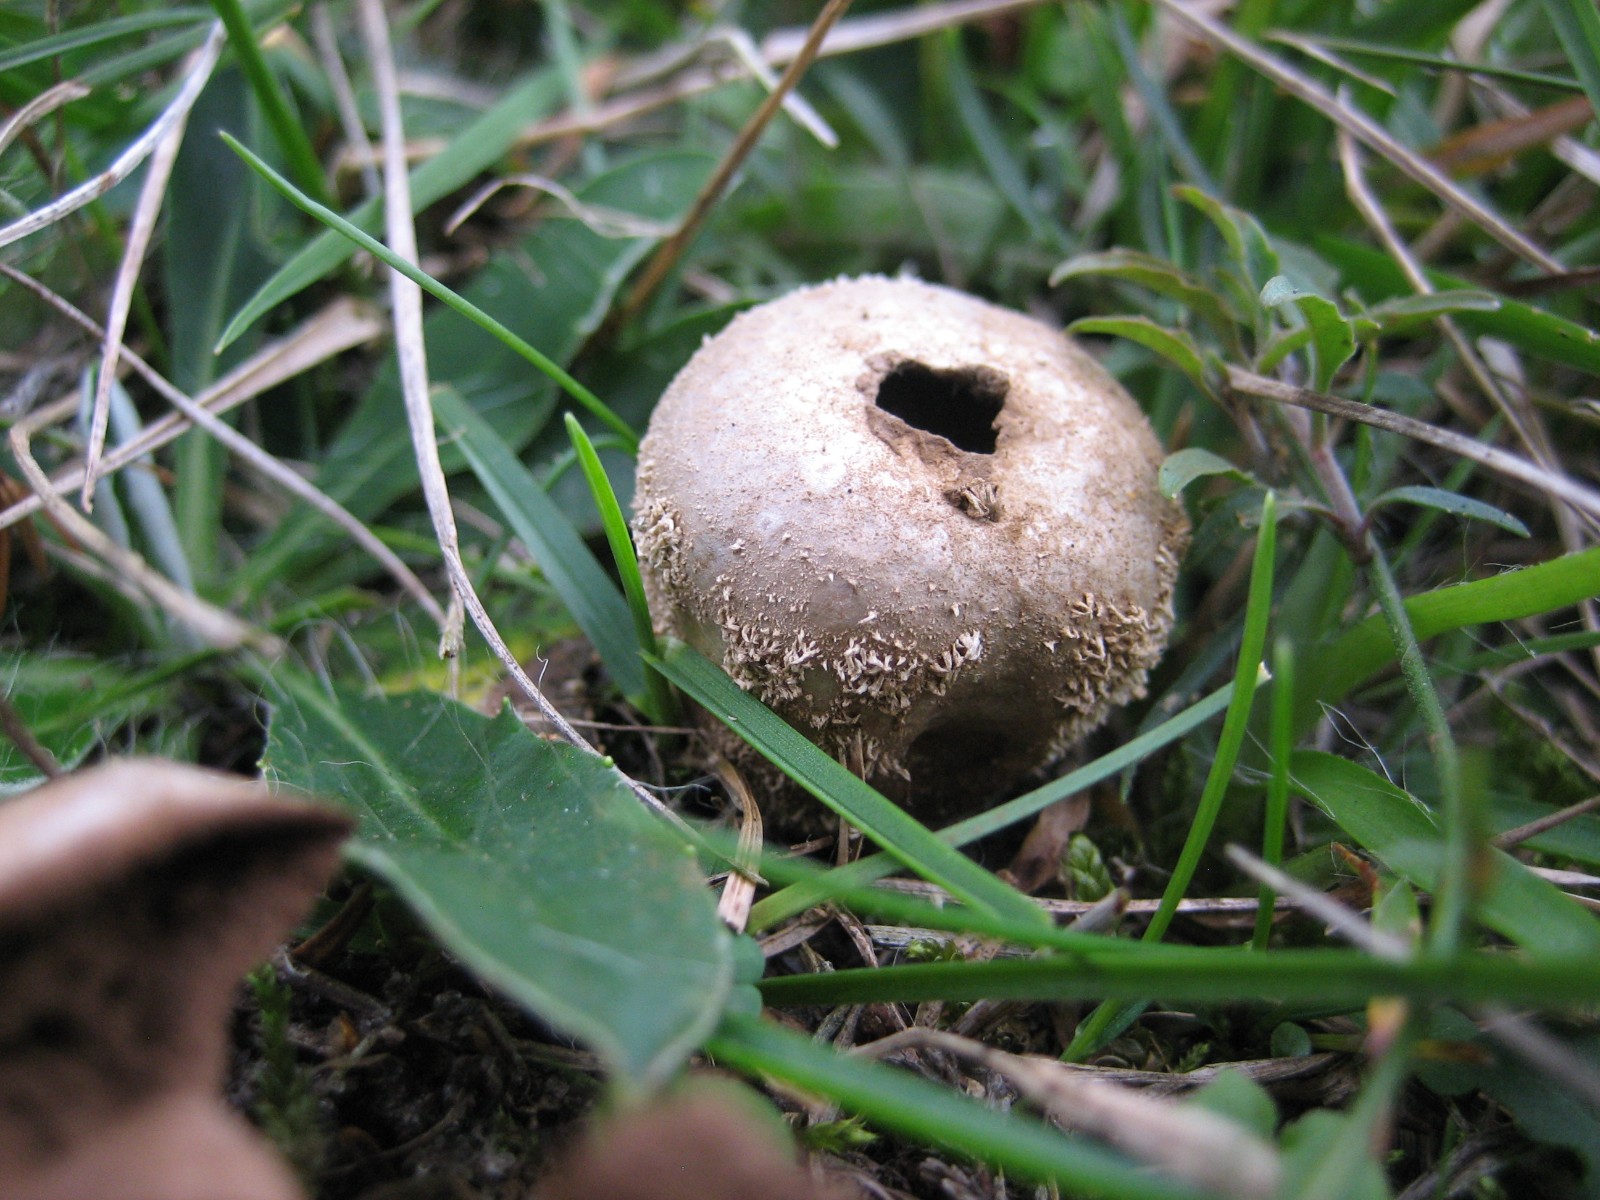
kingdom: Fungi
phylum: Basidiomycota
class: Agaricomycetes
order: Agaricales
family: Agaricaceae
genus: Lycoperdon
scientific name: Lycoperdon
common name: støvbold
